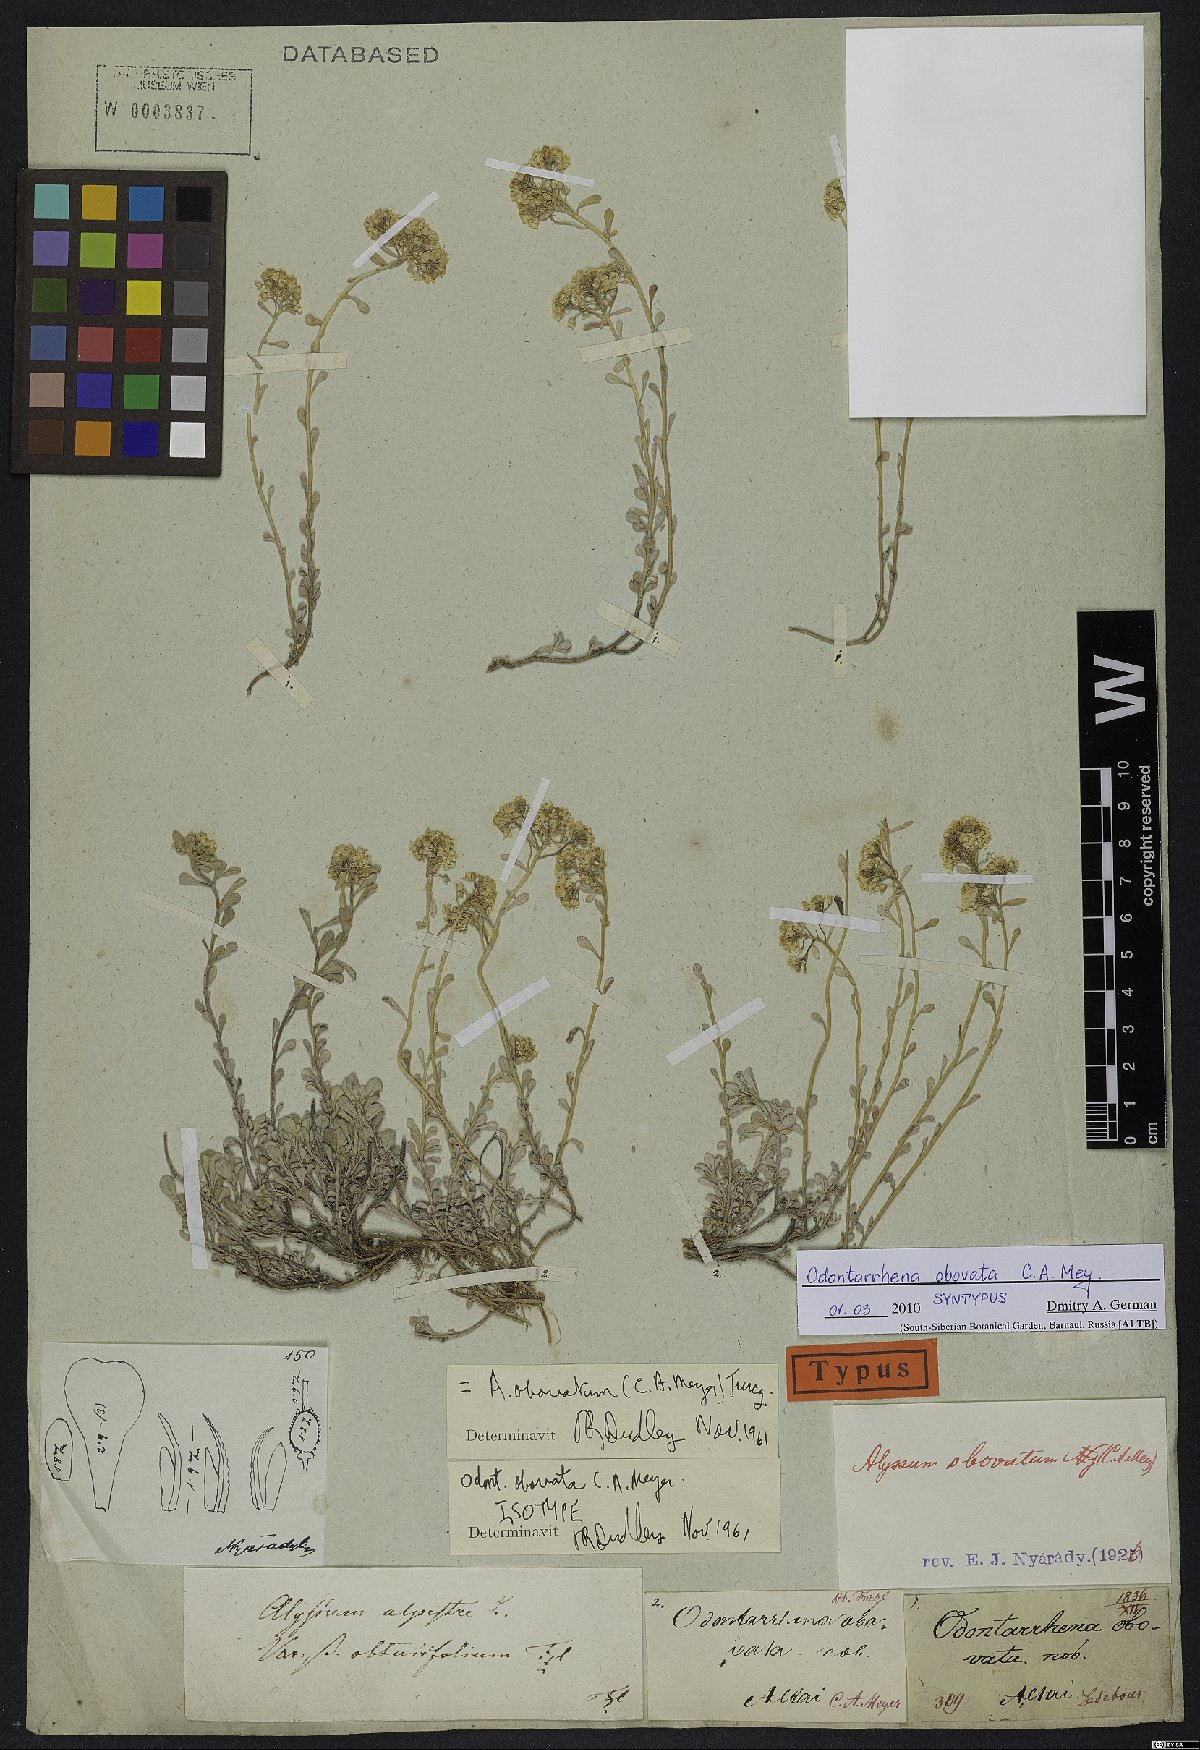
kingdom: Plantae
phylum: Tracheophyta
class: Magnoliopsida
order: Brassicales
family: Brassicaceae
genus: Odontarrhena
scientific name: Odontarrhena obovata
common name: American alyssum
